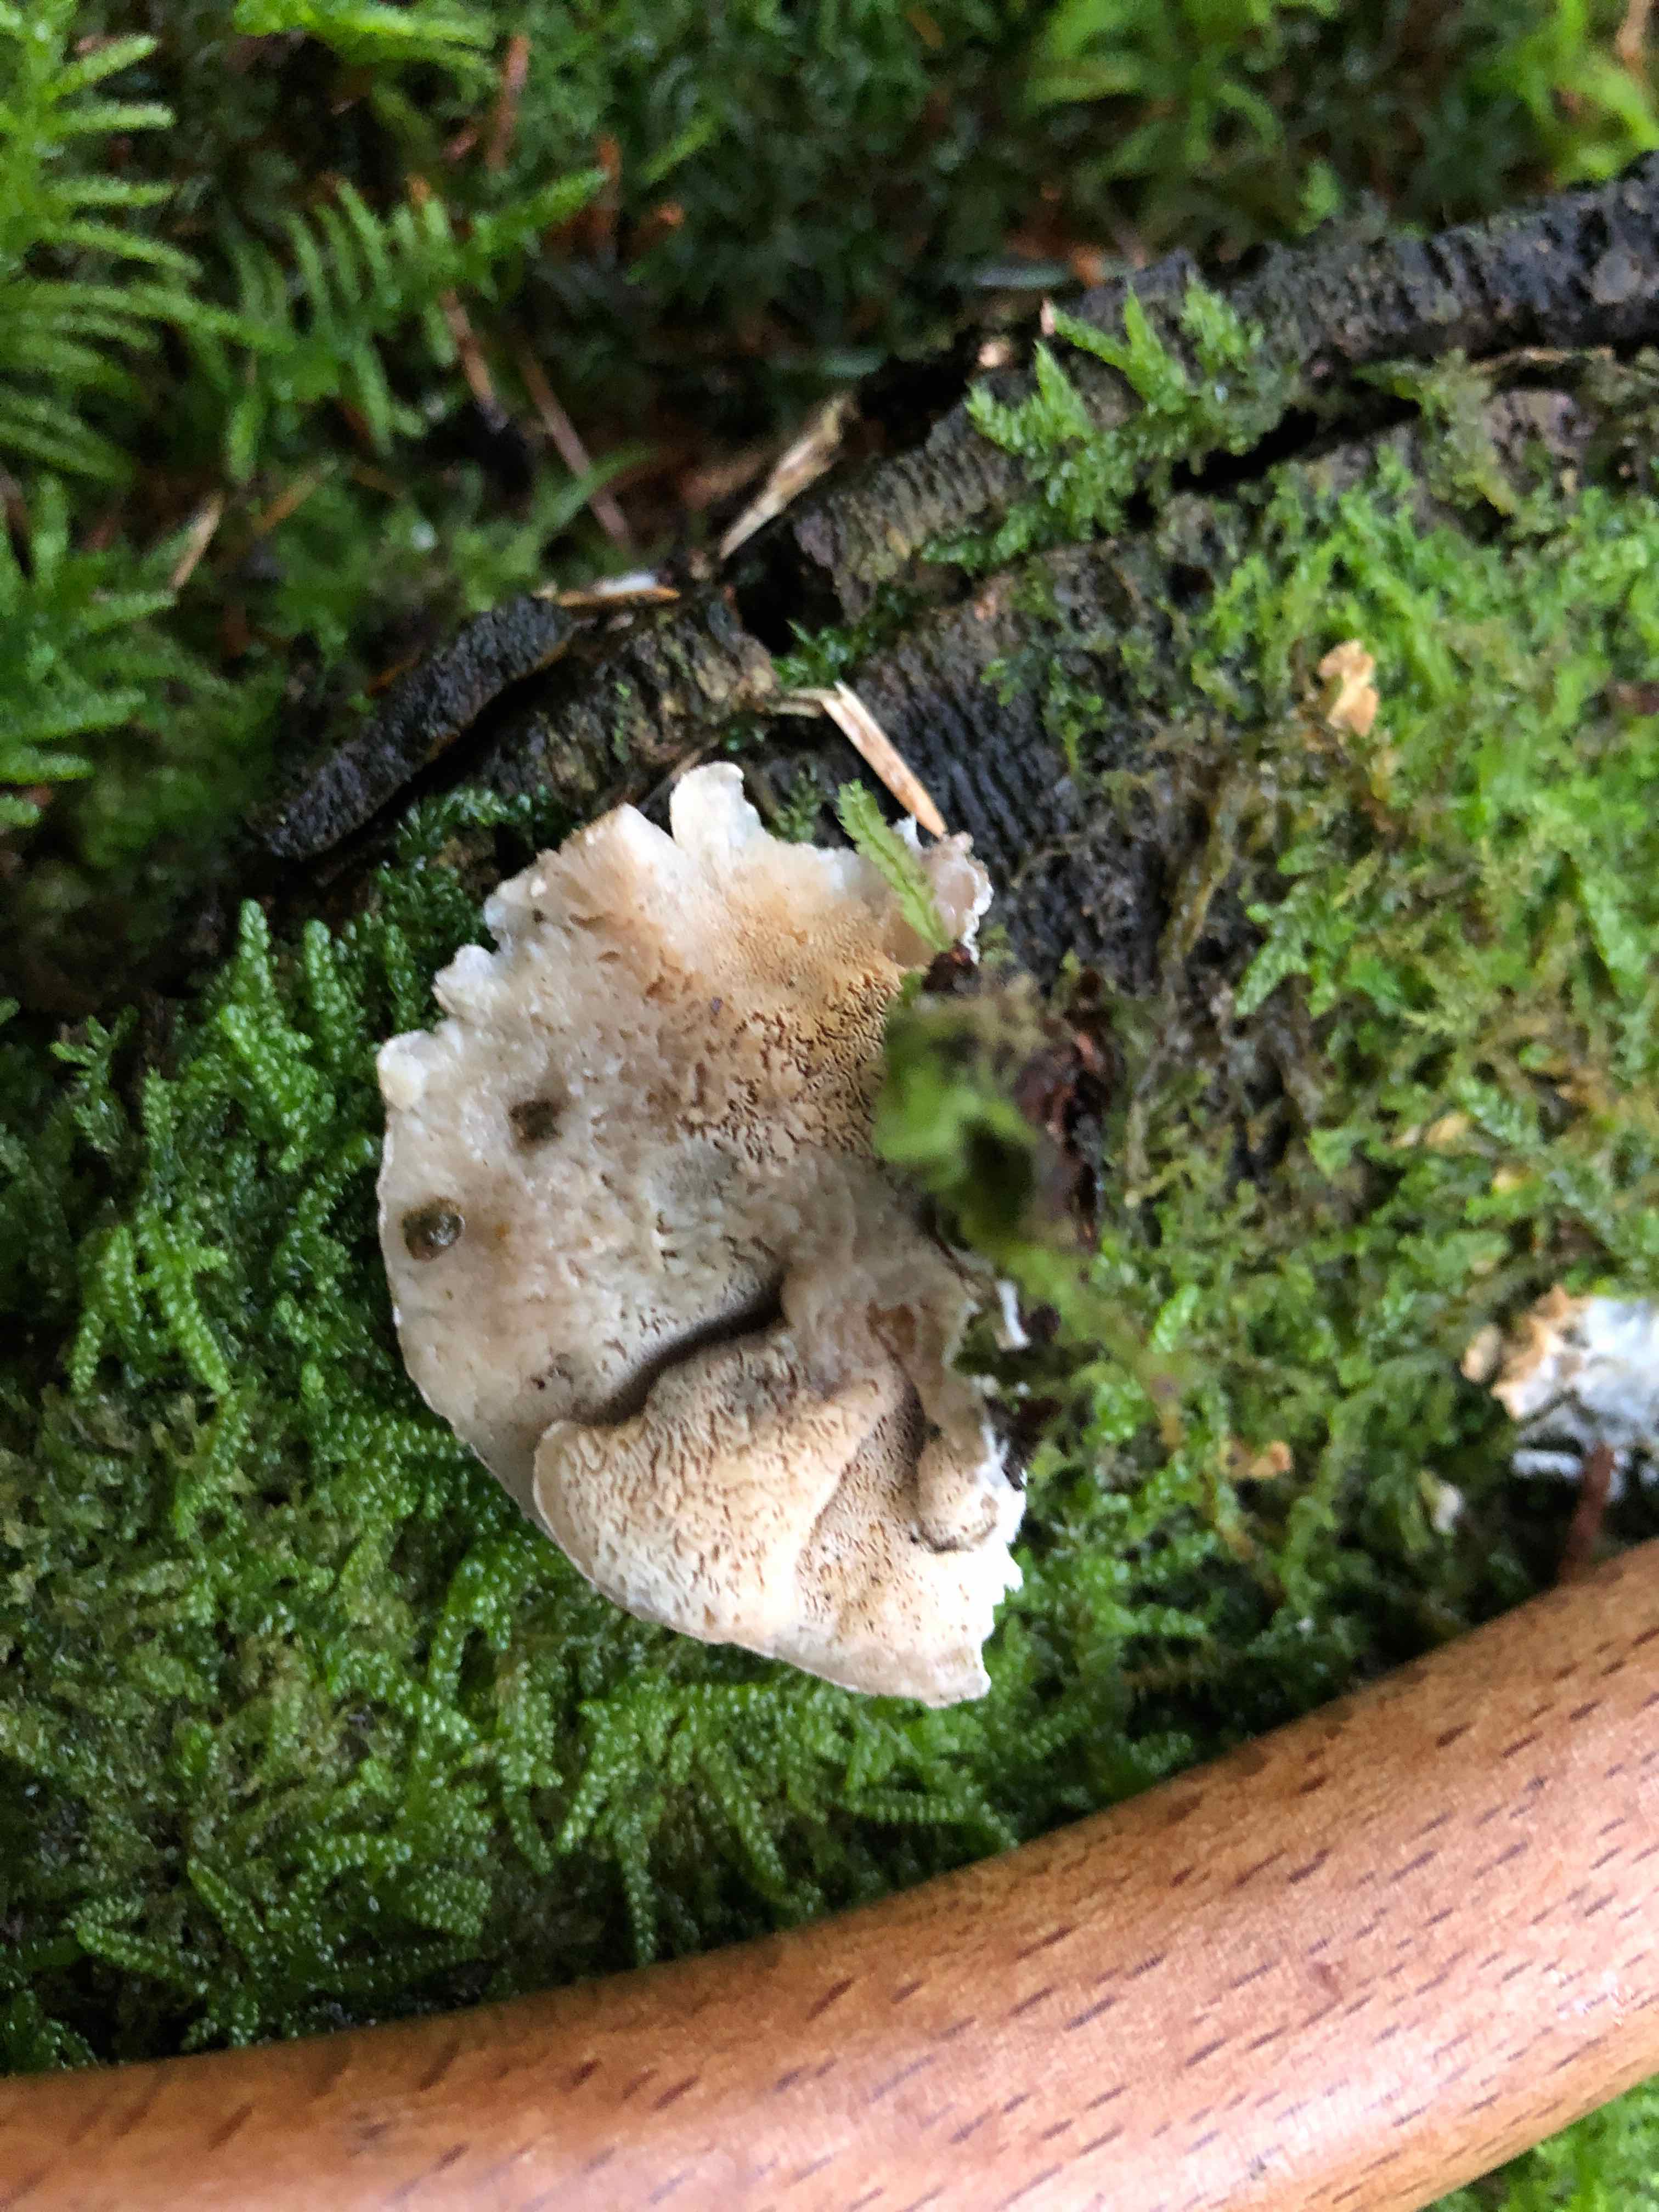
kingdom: Fungi
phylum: Basidiomycota
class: Agaricomycetes
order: Polyporales
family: Polyporaceae
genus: Cyanosporus
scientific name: Cyanosporus caesius
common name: blålig kødporesvamp
